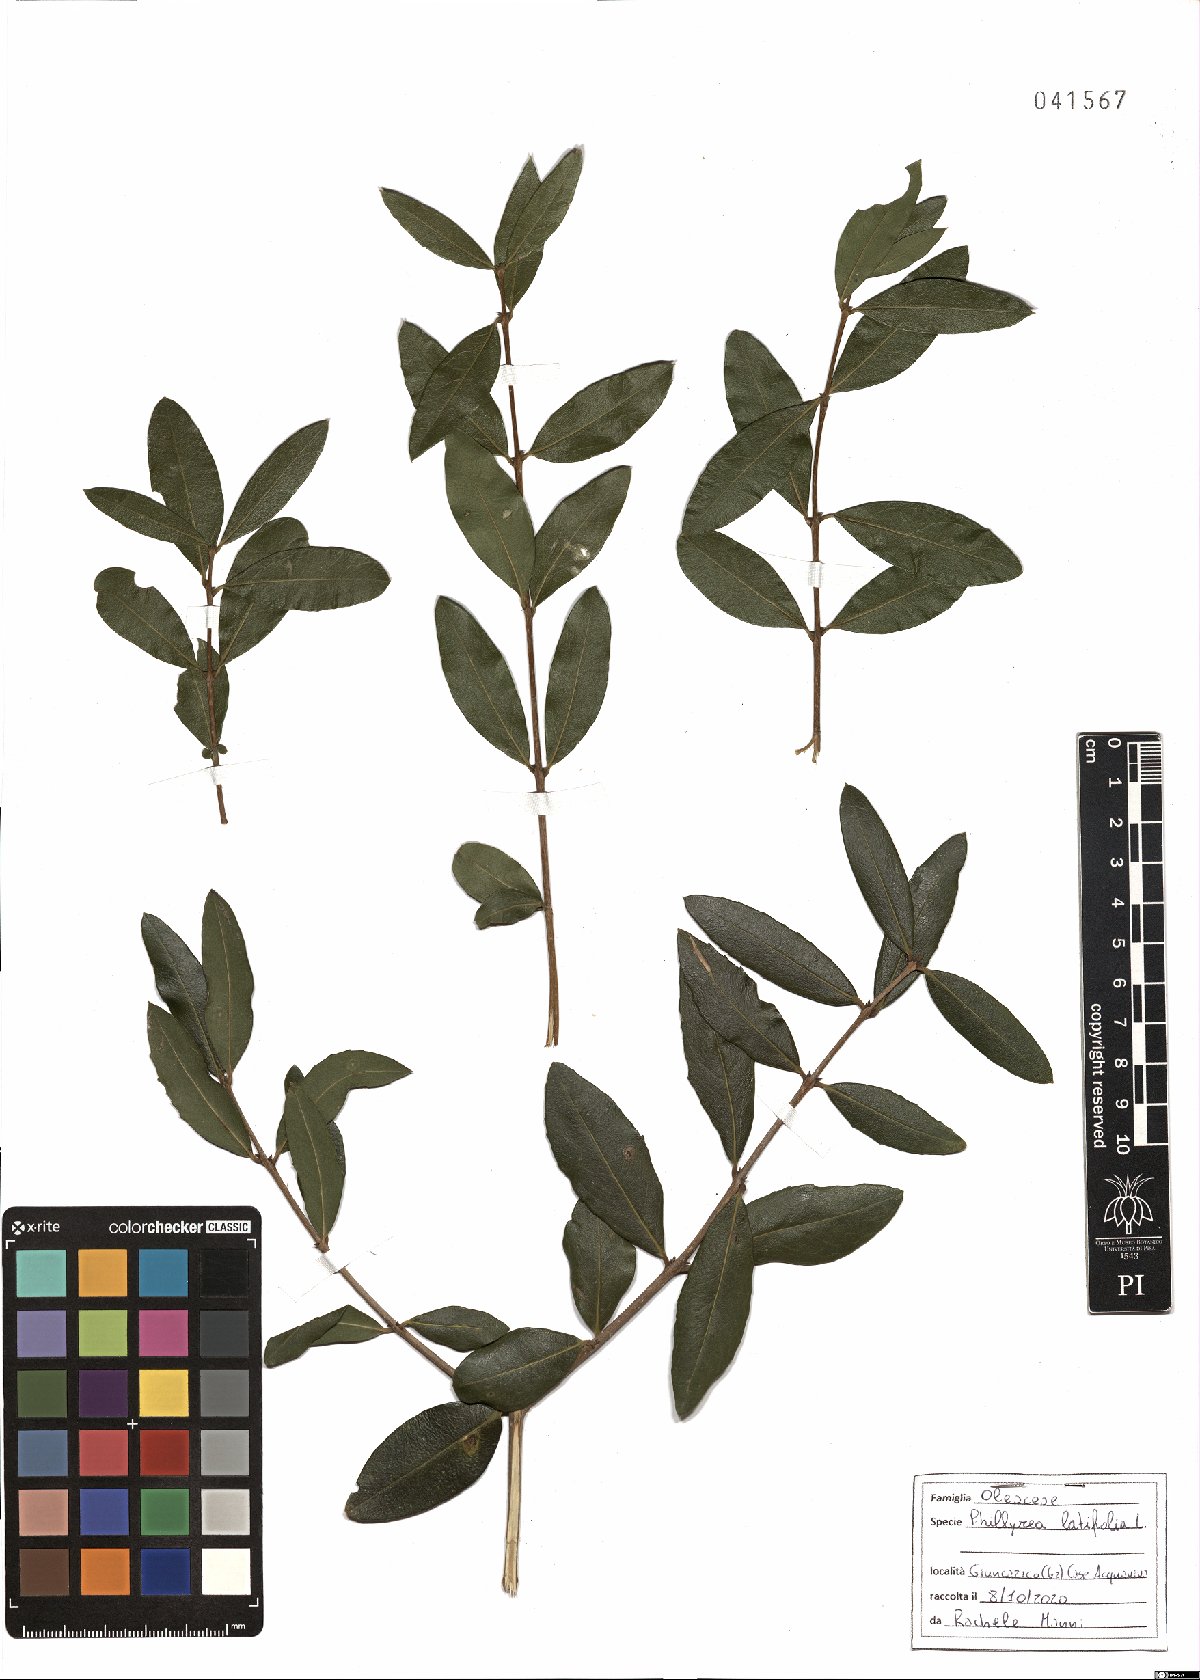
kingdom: Plantae
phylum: Tracheophyta
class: Magnoliopsida
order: Lamiales
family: Oleaceae
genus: Phillyrea
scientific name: Phillyrea latifolia
